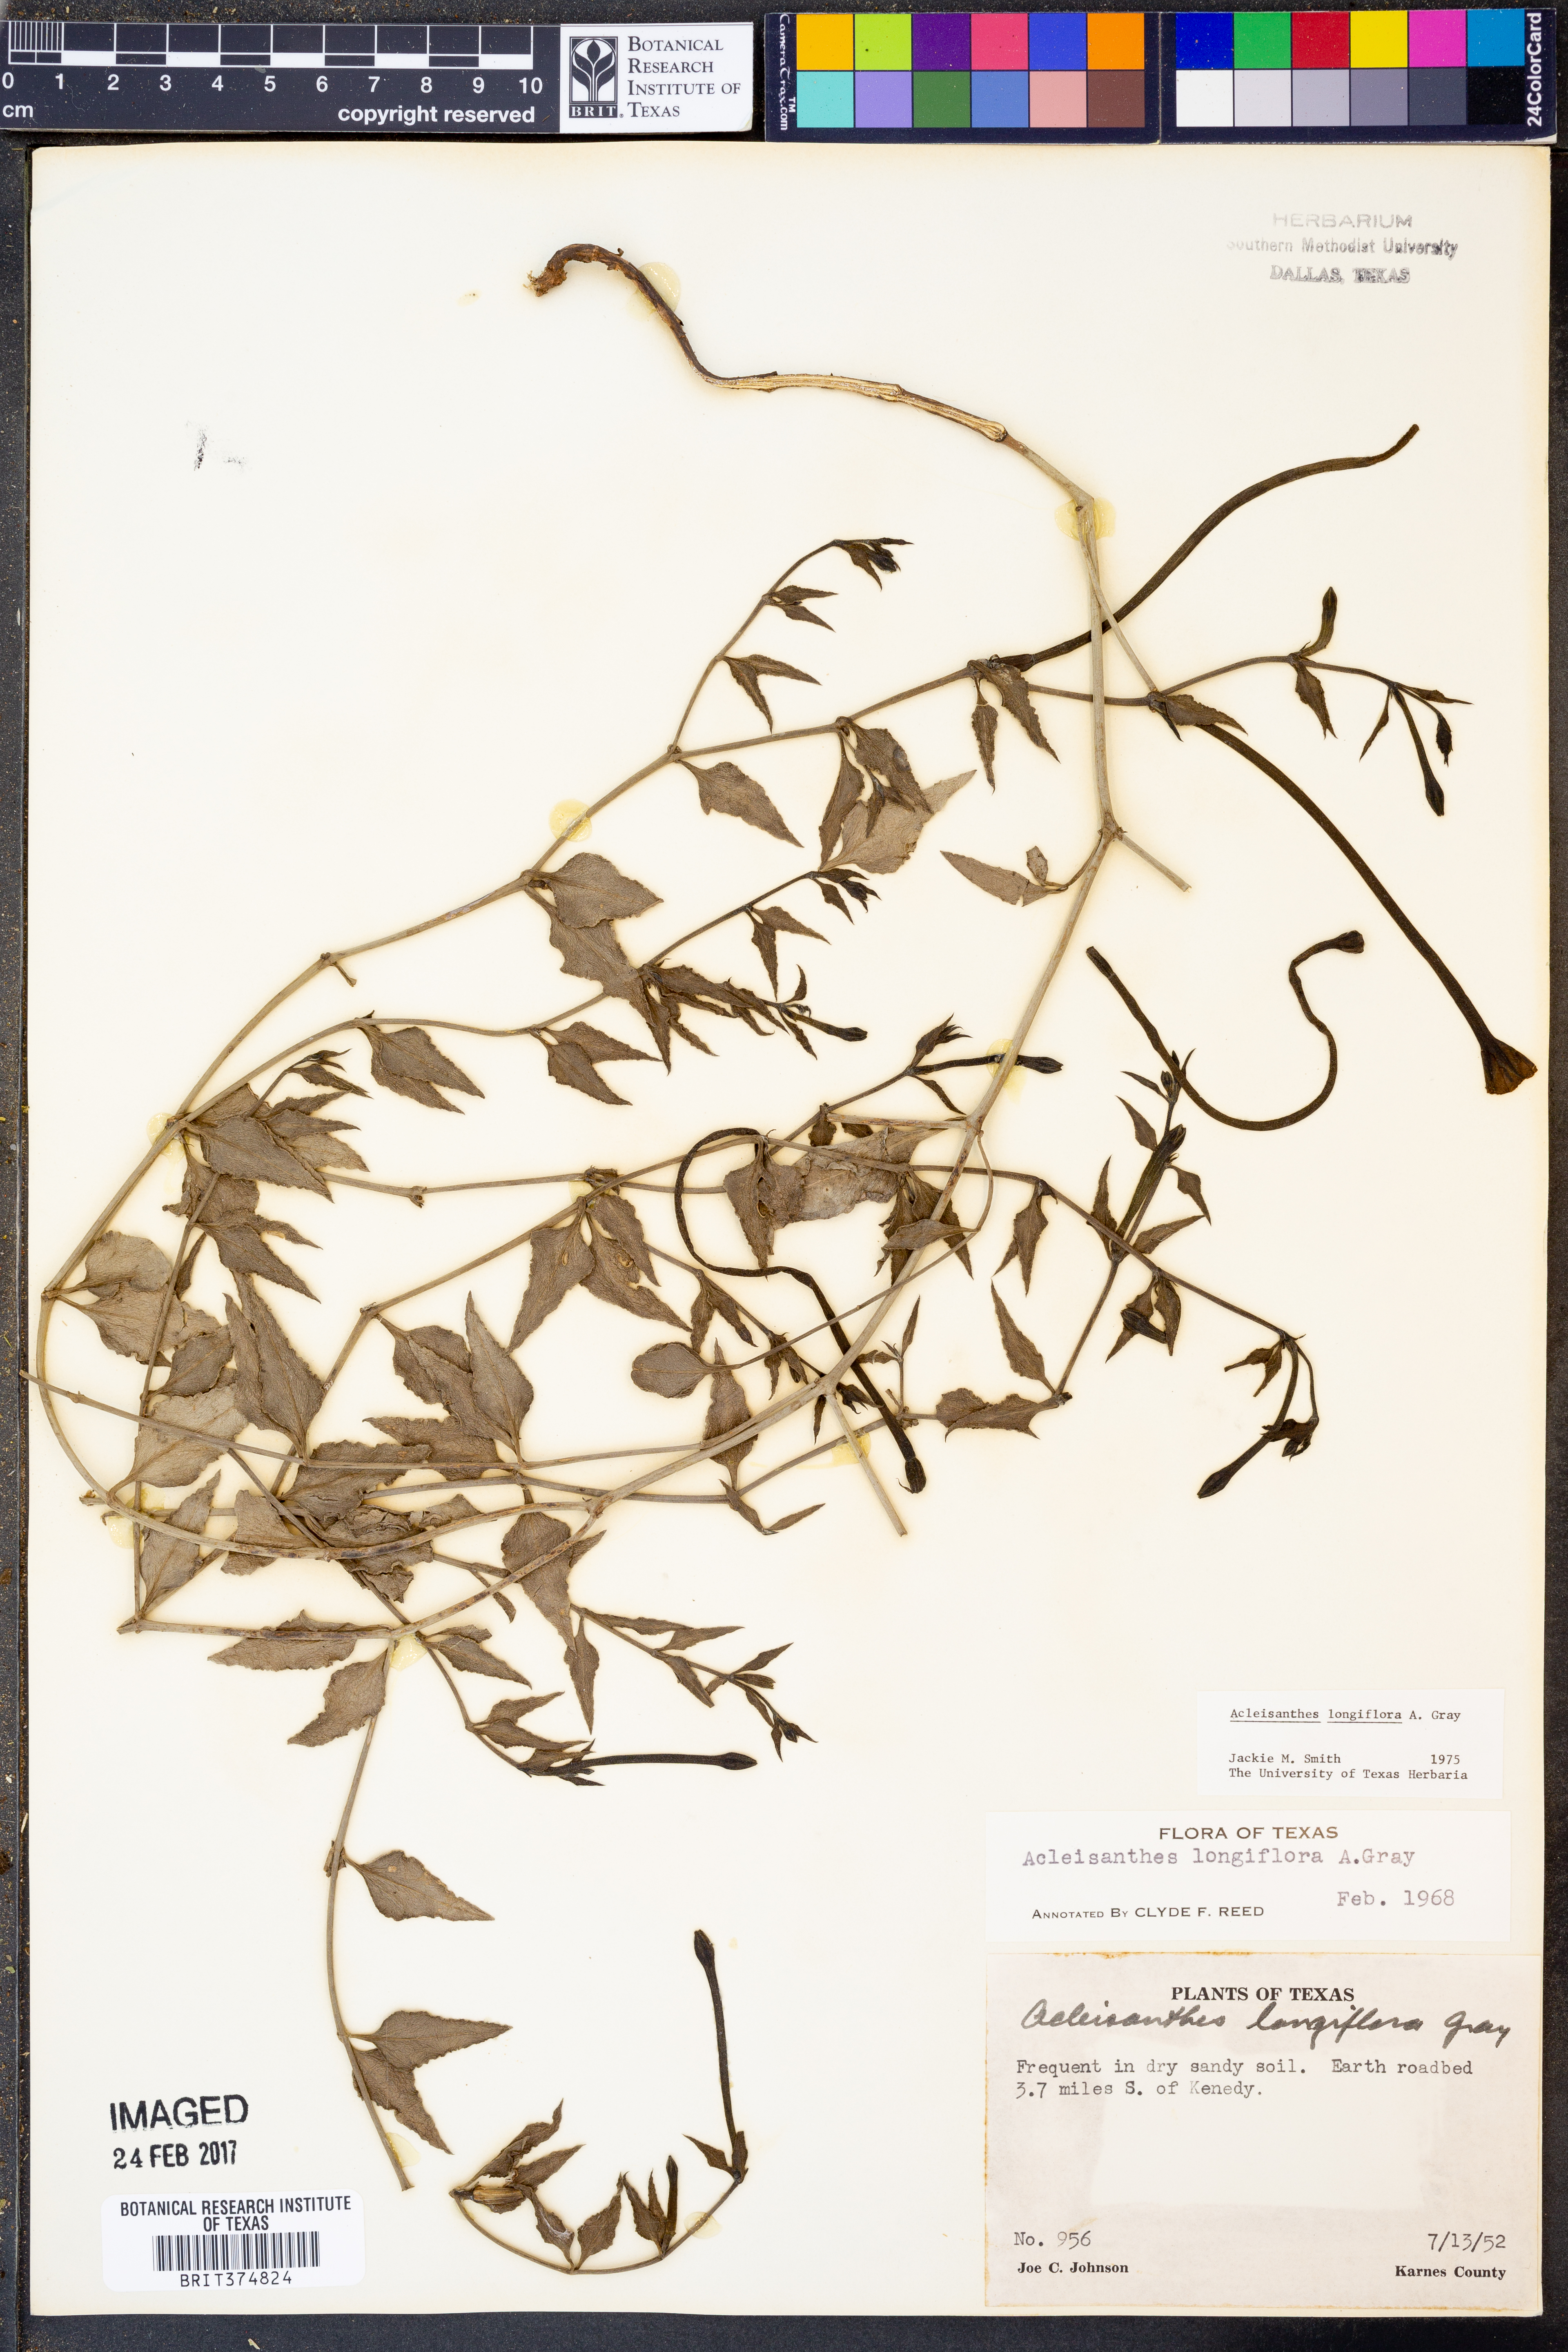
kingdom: Plantae
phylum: Tracheophyta
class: Magnoliopsida
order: Caryophyllales
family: Nyctaginaceae
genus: Acleisanthes
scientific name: Acleisanthes longiflora
